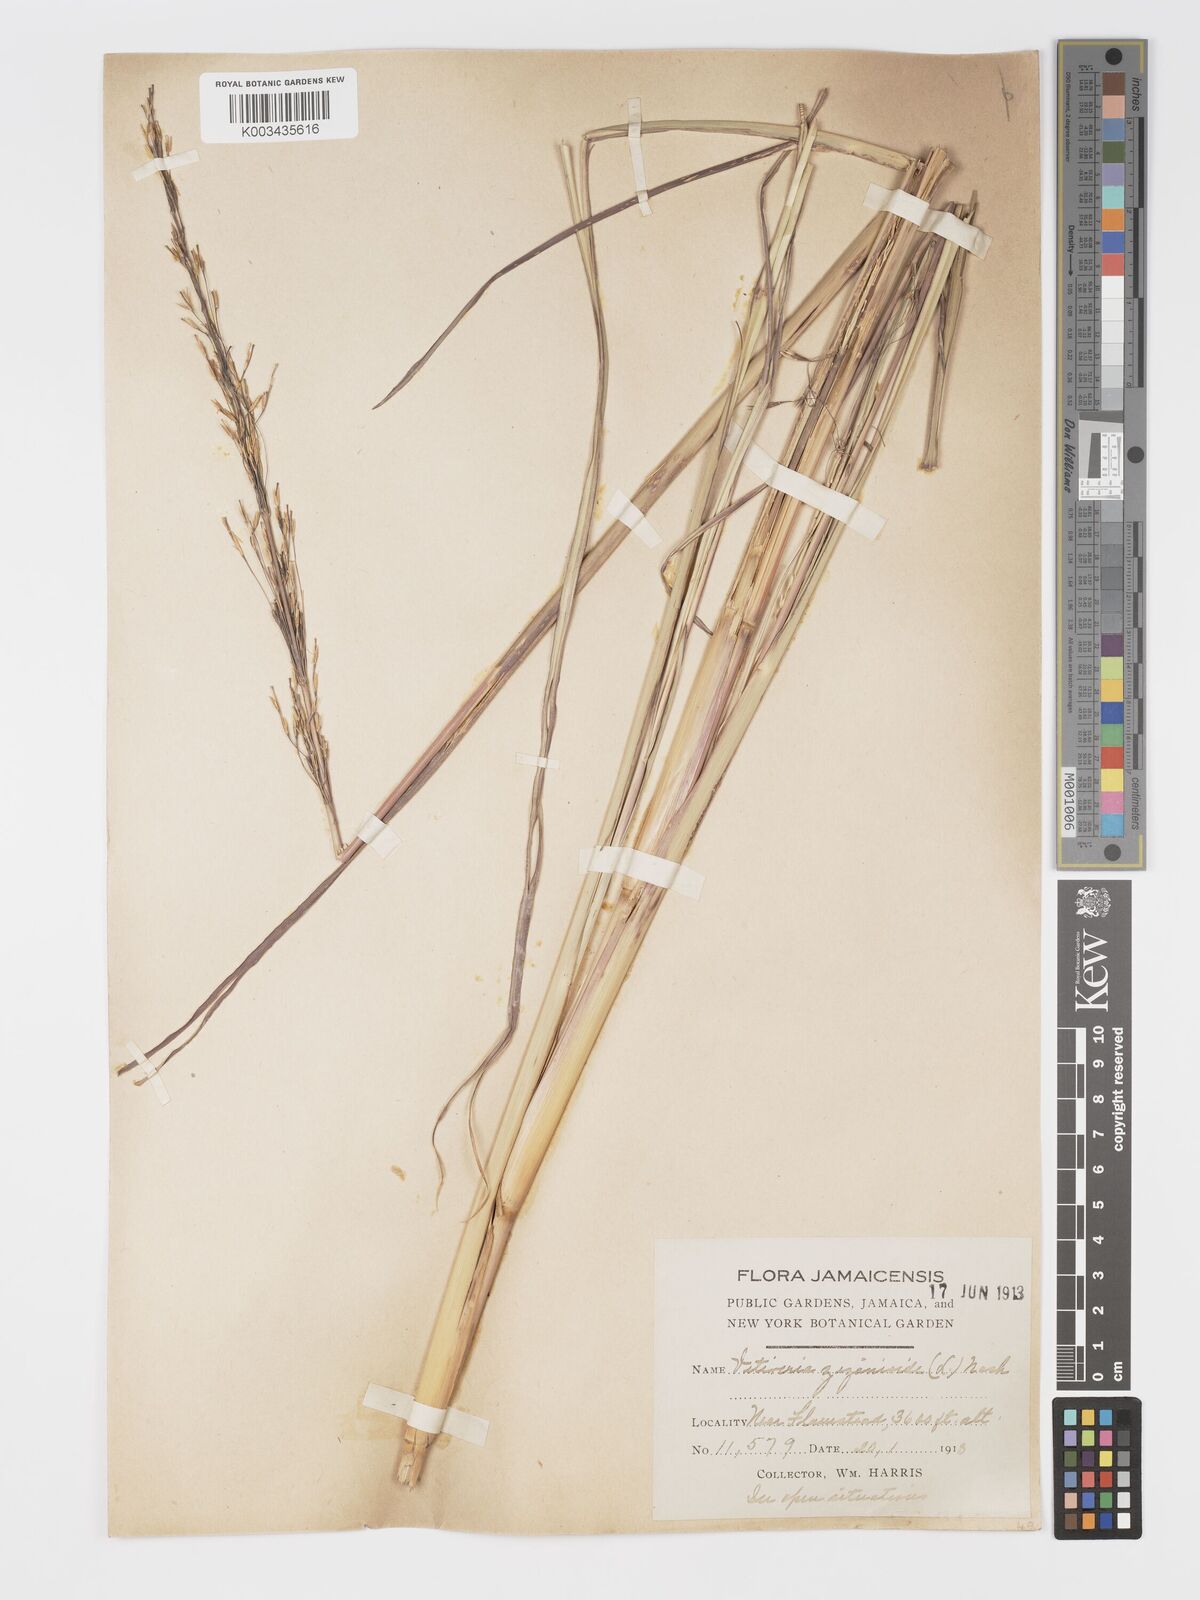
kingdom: Plantae
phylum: Tracheophyta
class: Liliopsida
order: Poales
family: Poaceae
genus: Chrysopogon
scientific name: Chrysopogon zizanioides
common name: False beardgrass
